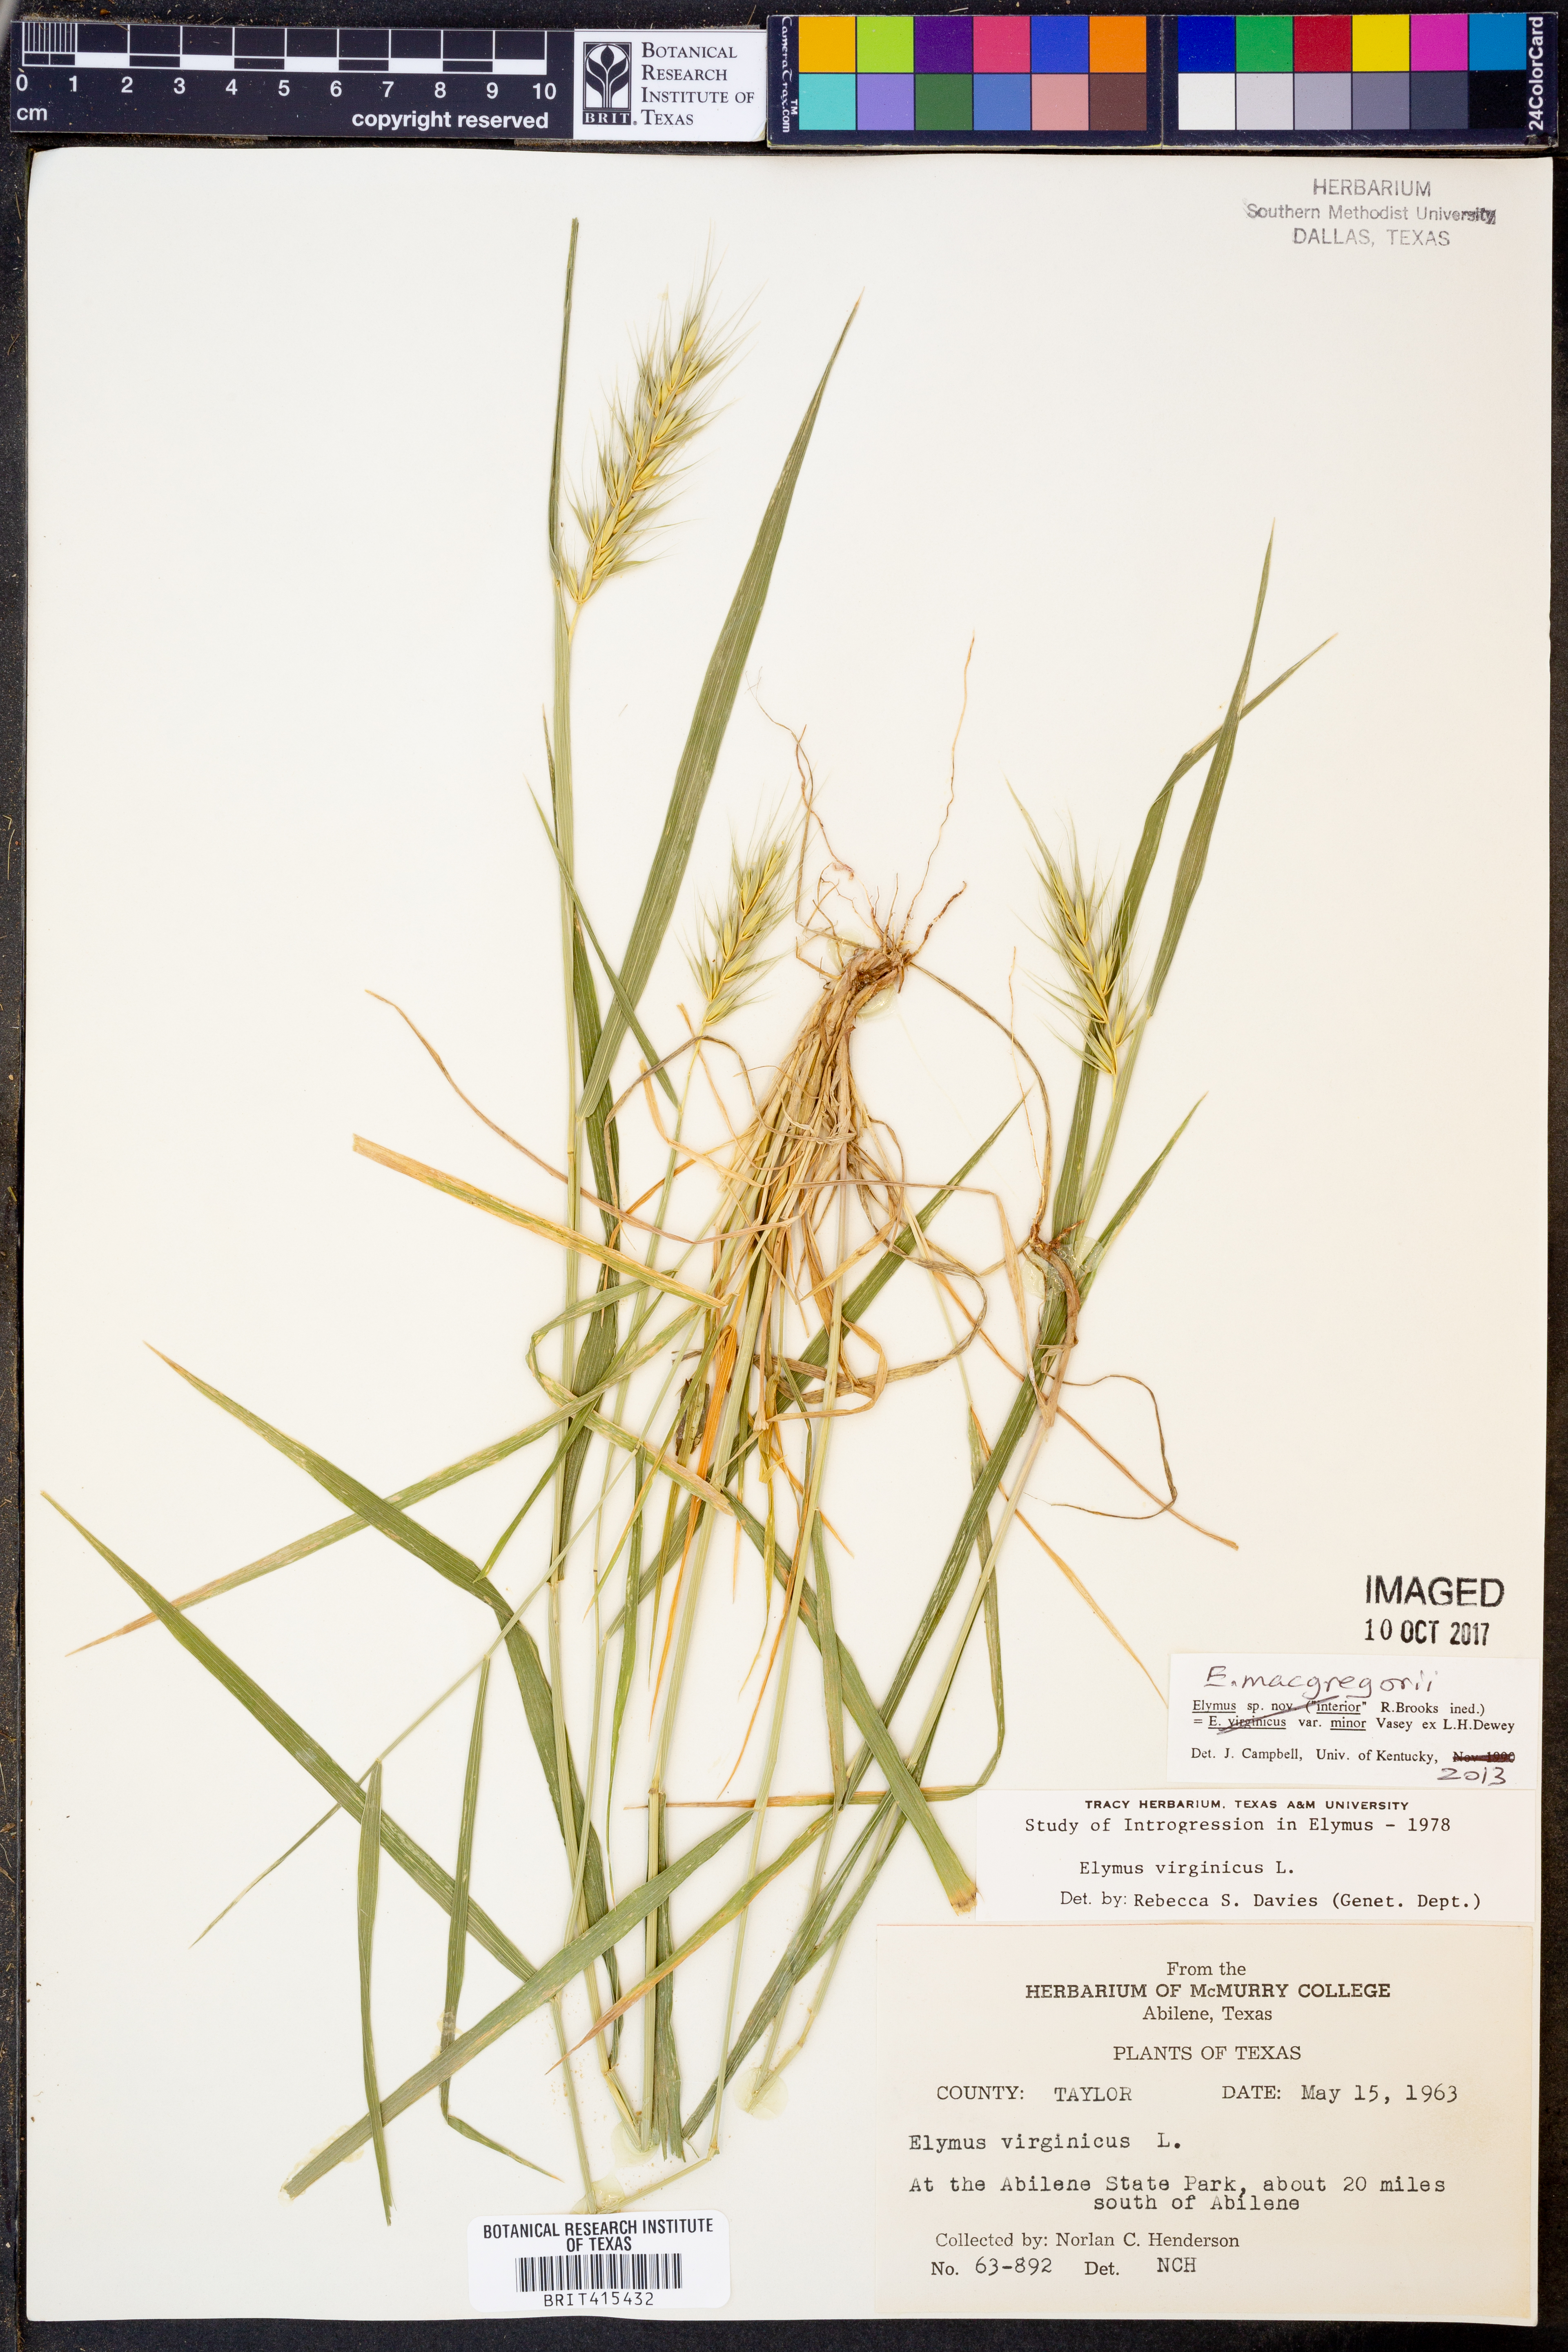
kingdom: Plantae
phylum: Tracheophyta
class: Liliopsida
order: Poales
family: Poaceae
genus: Elymus
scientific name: Elymus macgregorii
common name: Early wild rye
